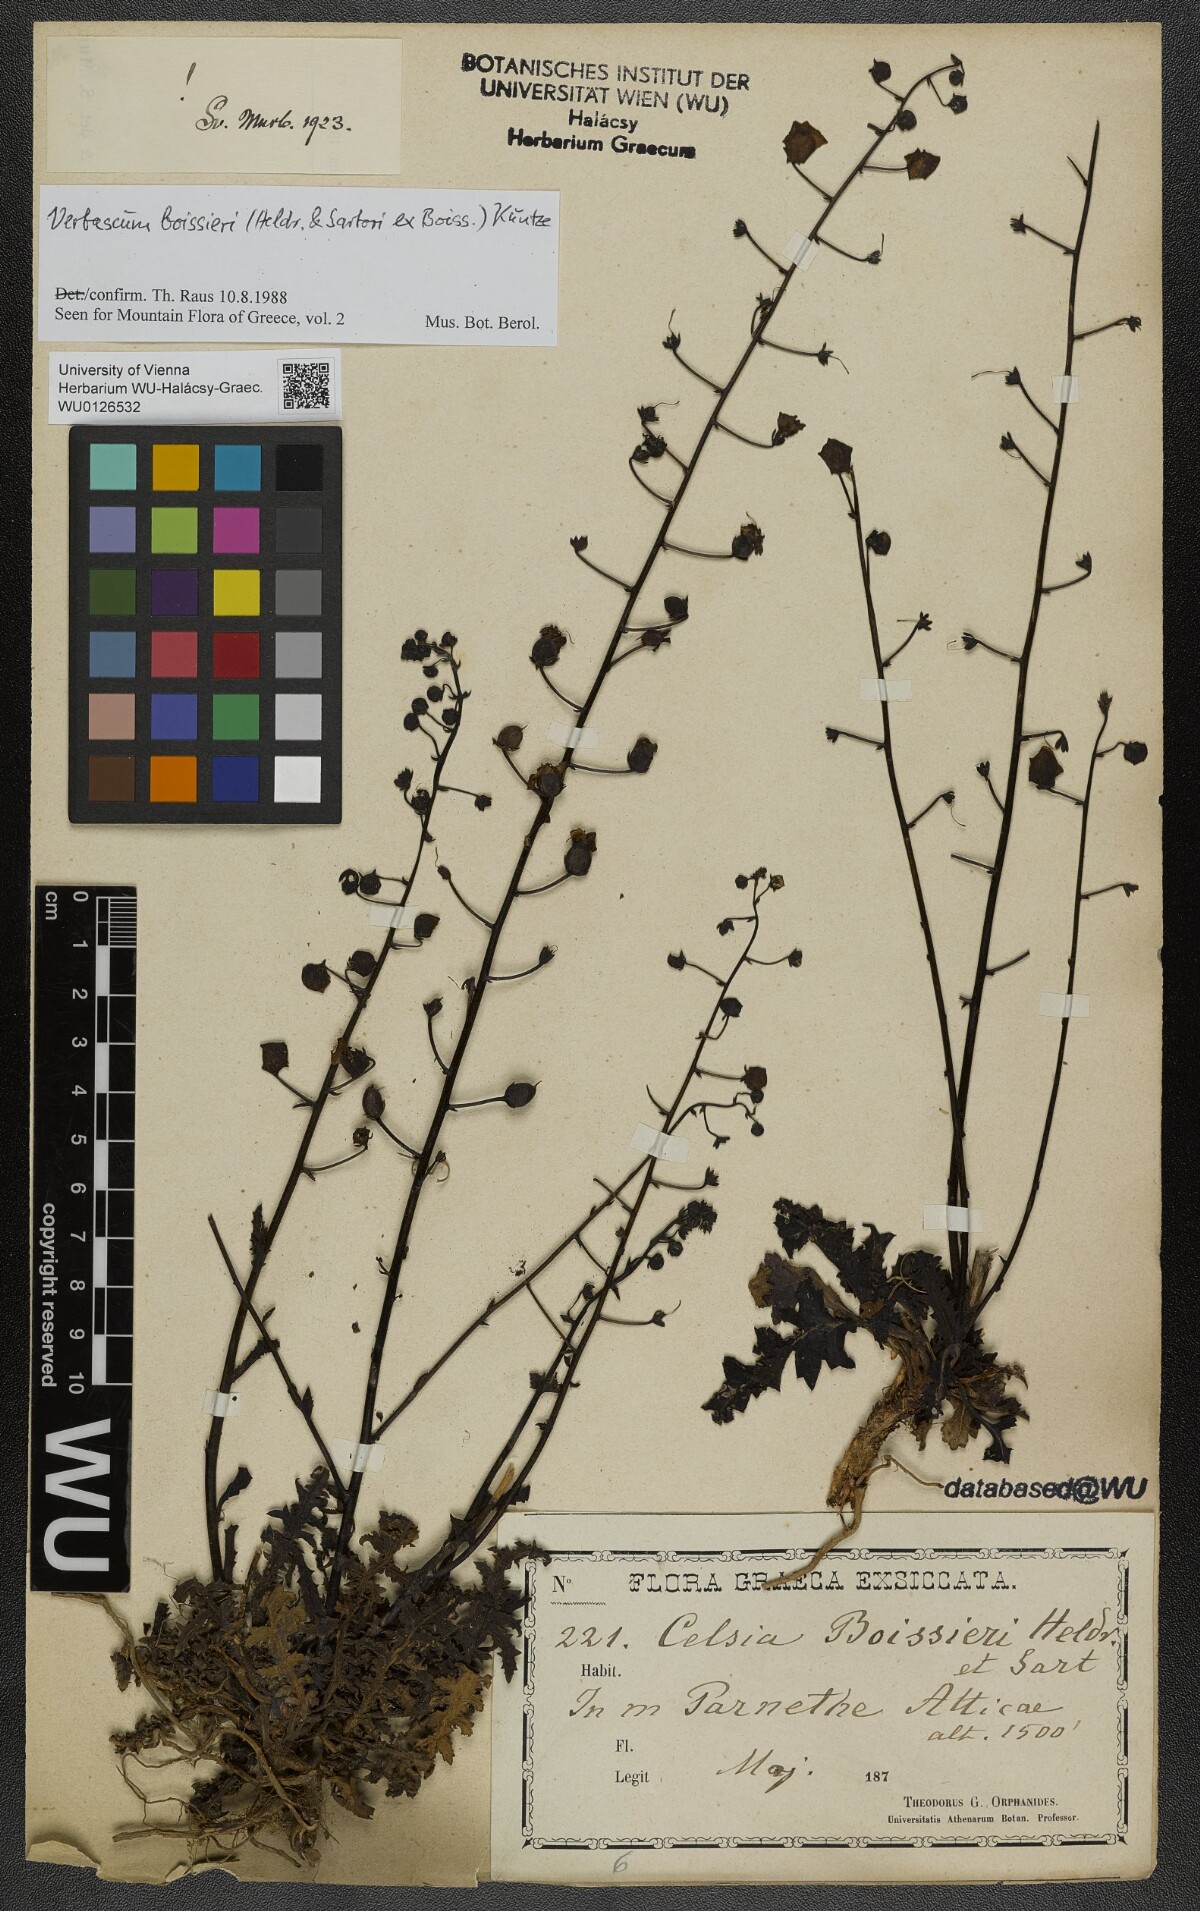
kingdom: Plantae
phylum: Tracheophyta
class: Magnoliopsida
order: Lamiales
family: Scrophulariaceae
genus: Verbascum
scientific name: Verbascum boissieri
